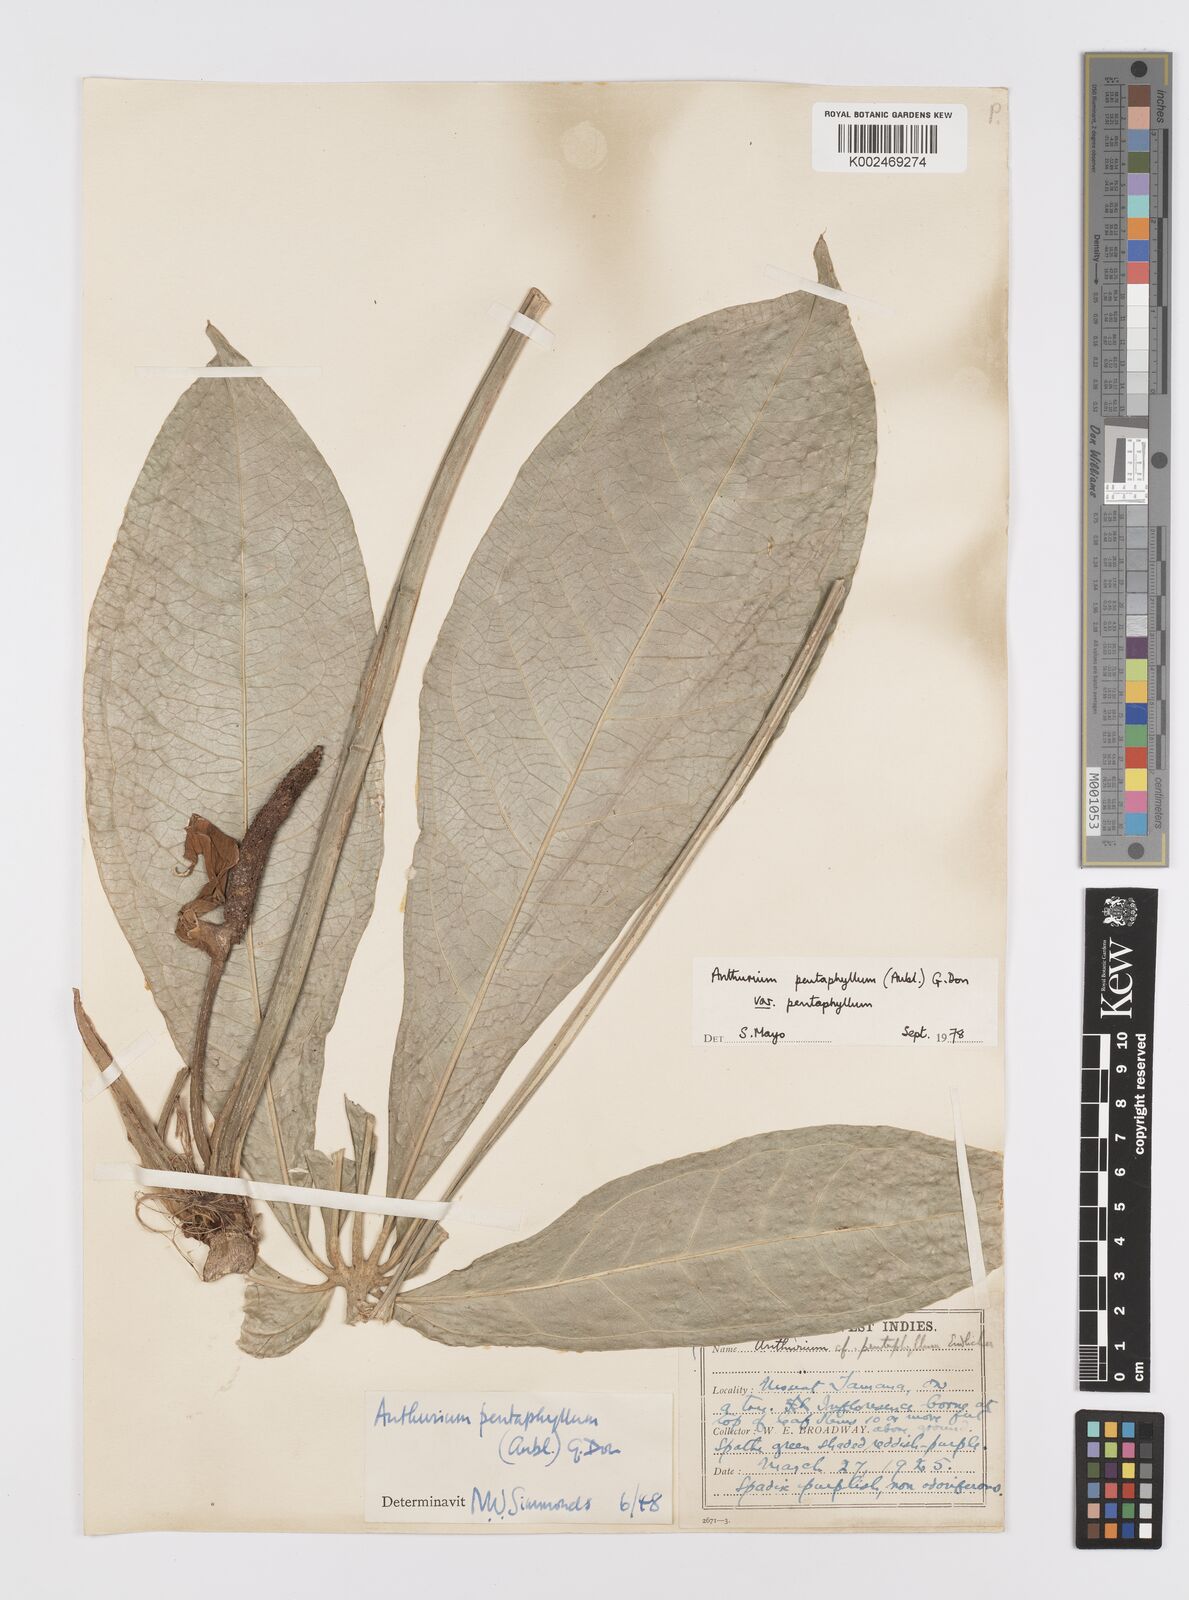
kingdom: Plantae
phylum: Tracheophyta
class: Liliopsida
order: Alismatales
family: Araceae
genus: Anthurium
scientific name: Anthurium pentaphyllum
